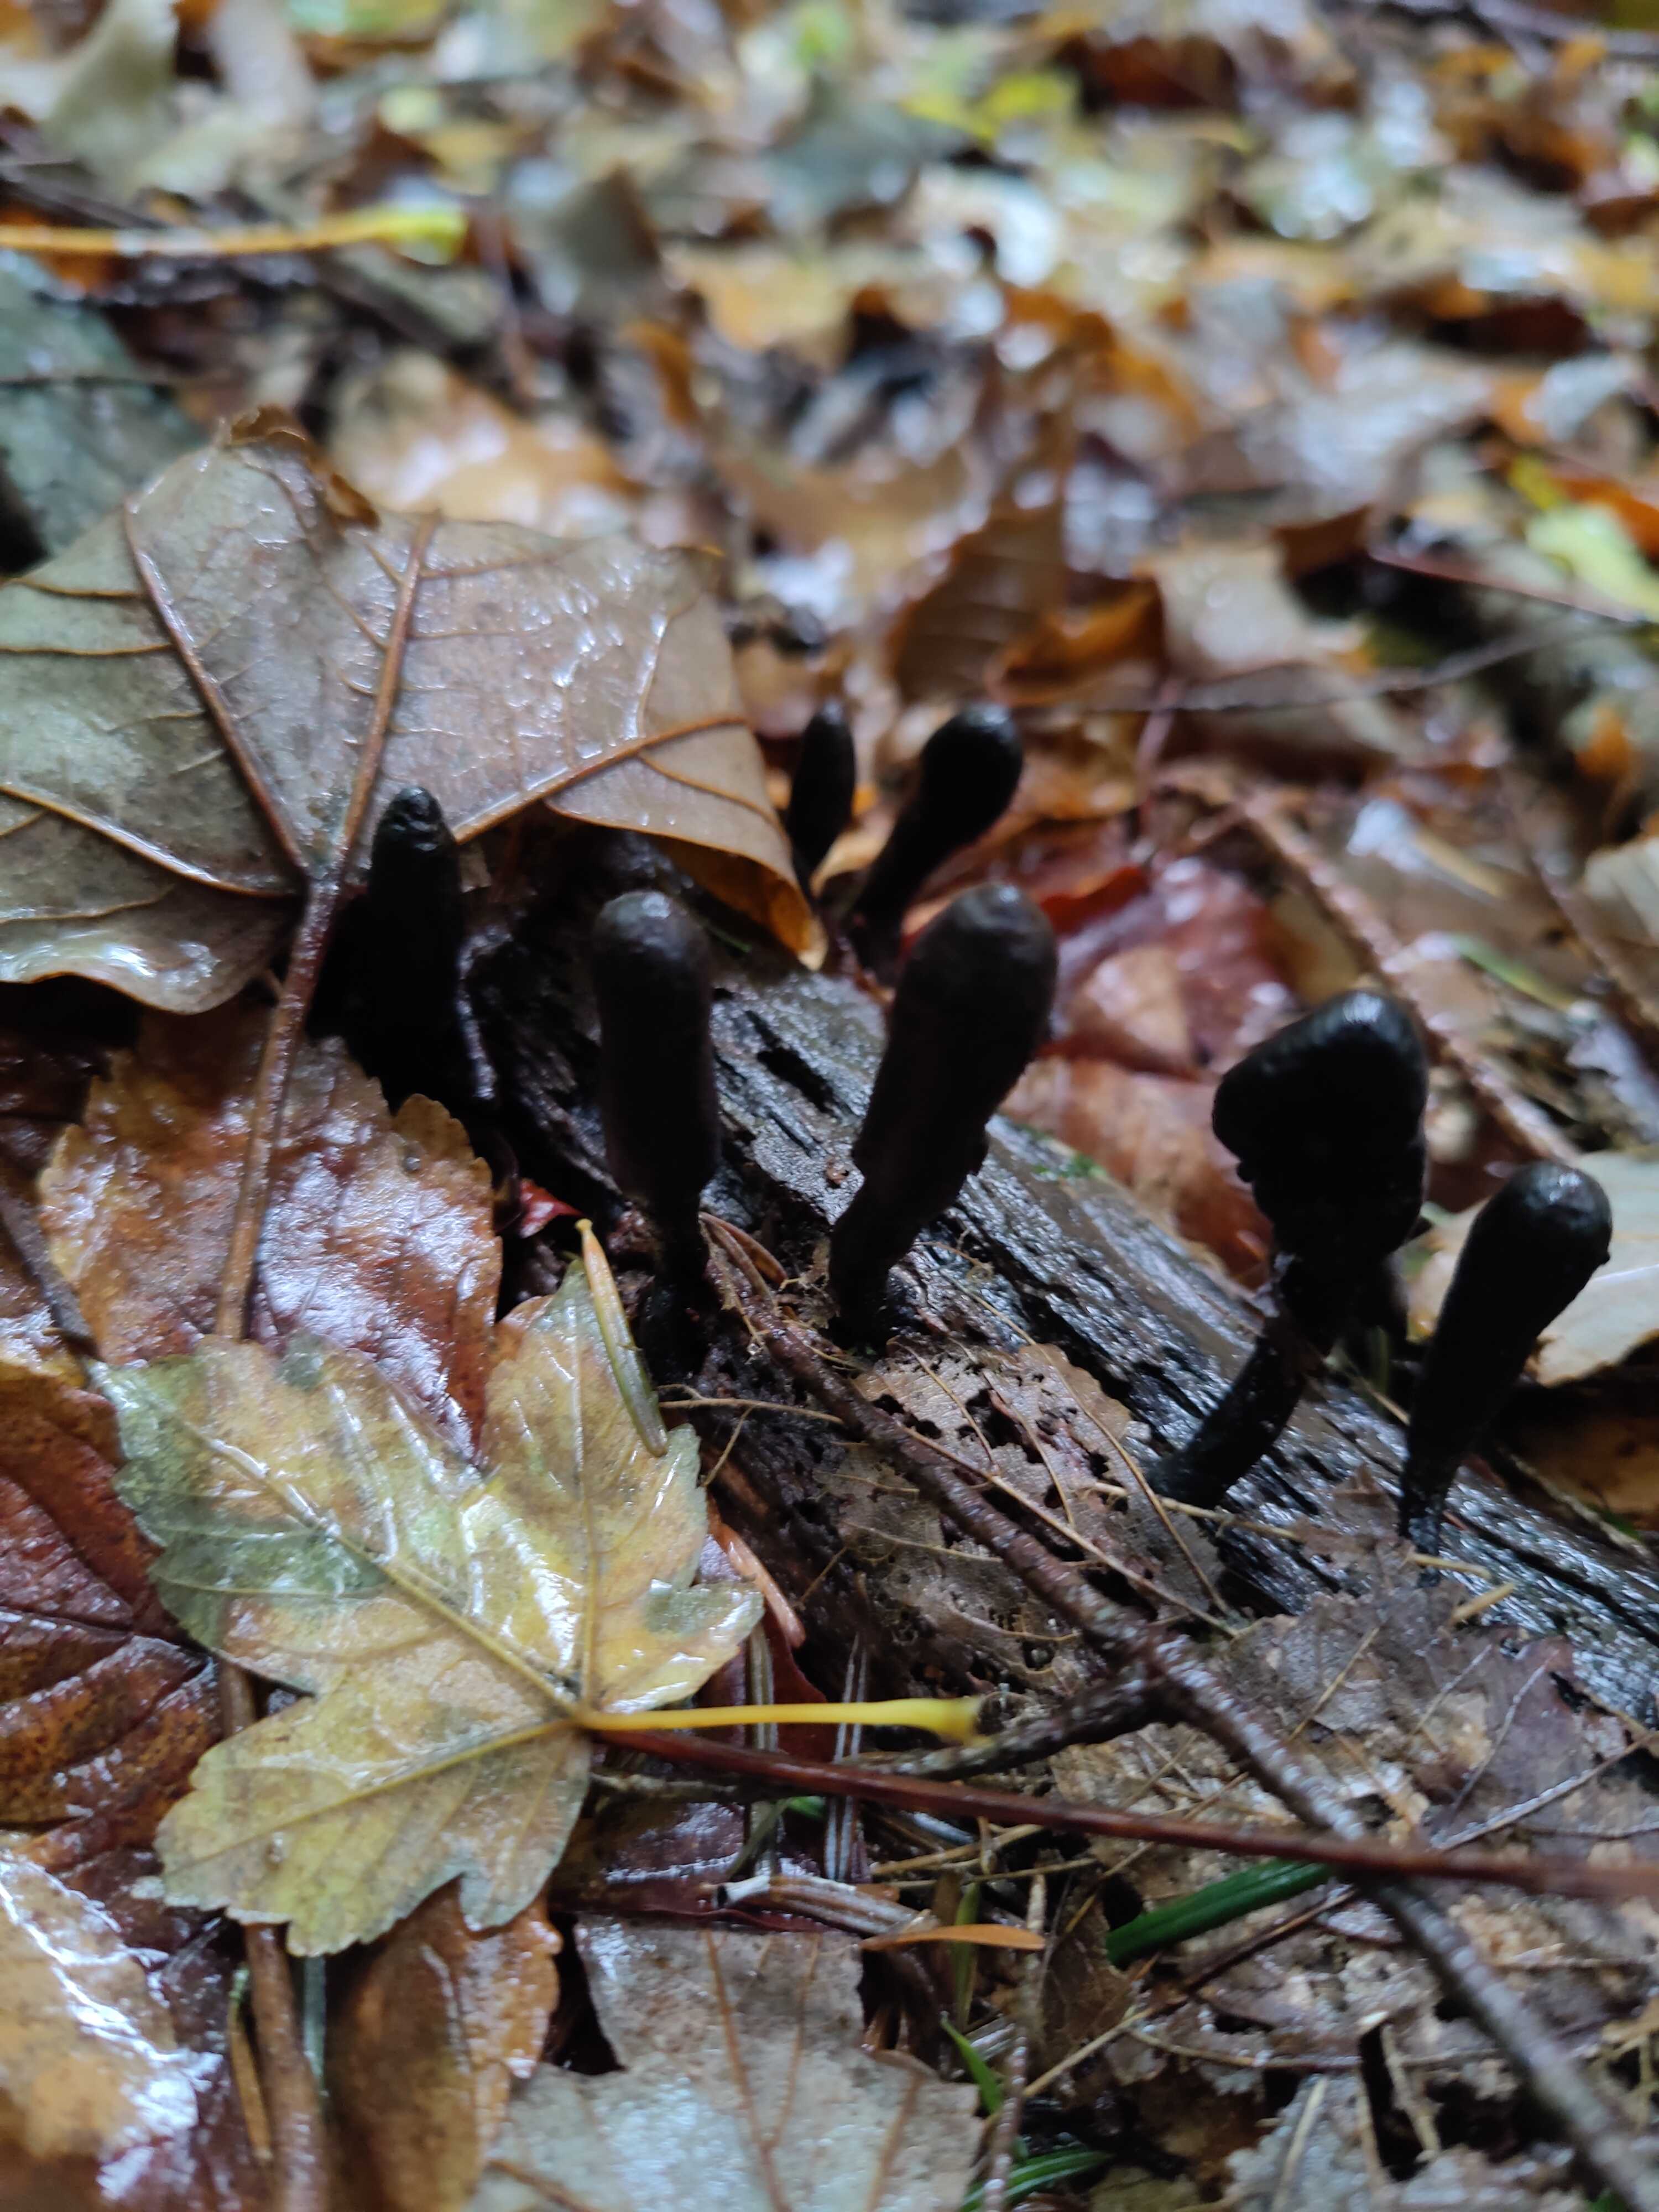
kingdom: Fungi
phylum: Ascomycota
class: Sordariomycetes
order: Xylariales
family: Xylariaceae
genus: Xylaria
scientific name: Xylaria longipes
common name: slank stødsvamp
